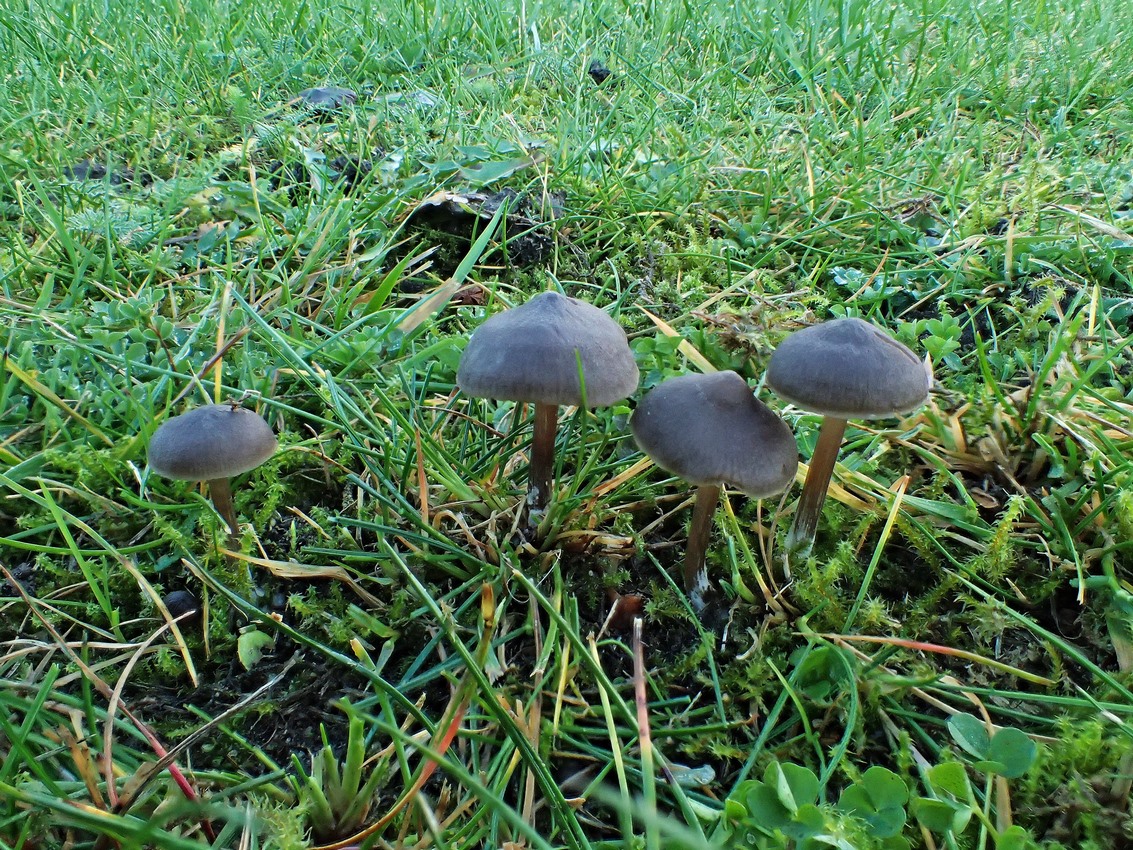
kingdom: Fungi
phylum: Basidiomycota
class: Agaricomycetes
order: Agaricales
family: Entolomataceae
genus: Entoloma
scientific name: Entoloma
